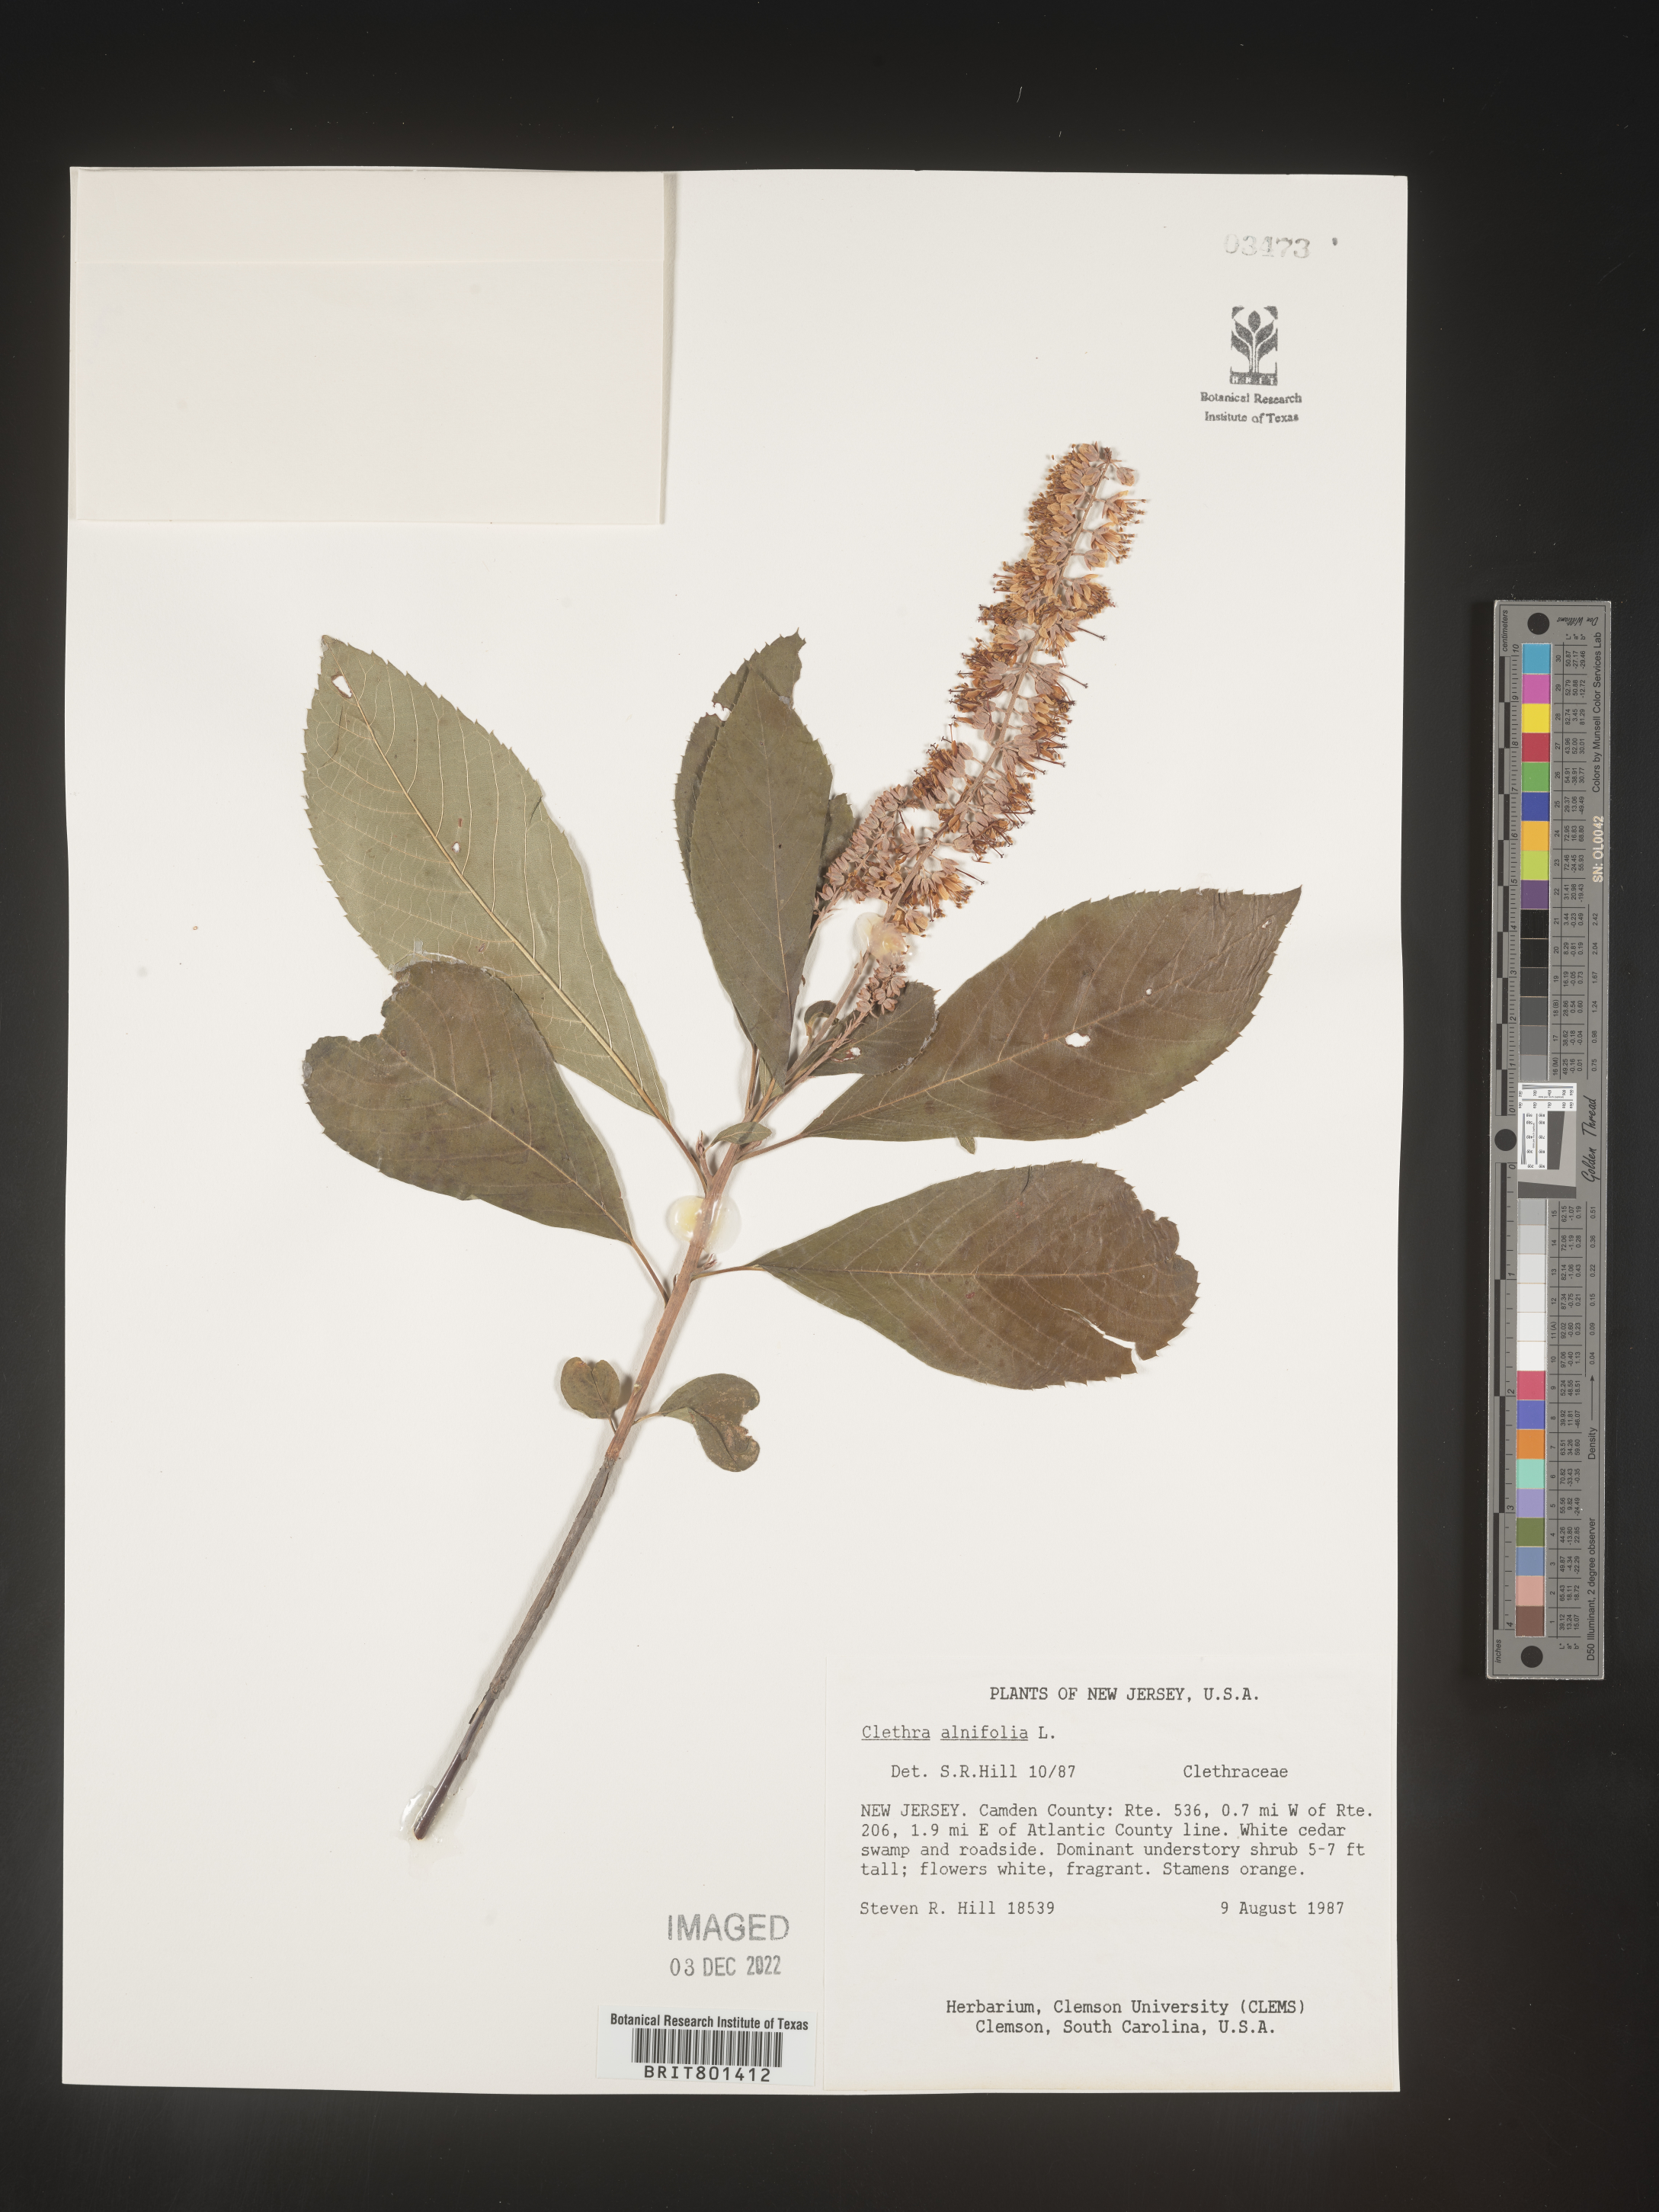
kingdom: Plantae
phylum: Tracheophyta
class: Magnoliopsida
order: Ericales
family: Clethraceae
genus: Clethra
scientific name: Clethra alnifolia
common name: Sweet pepperbush
